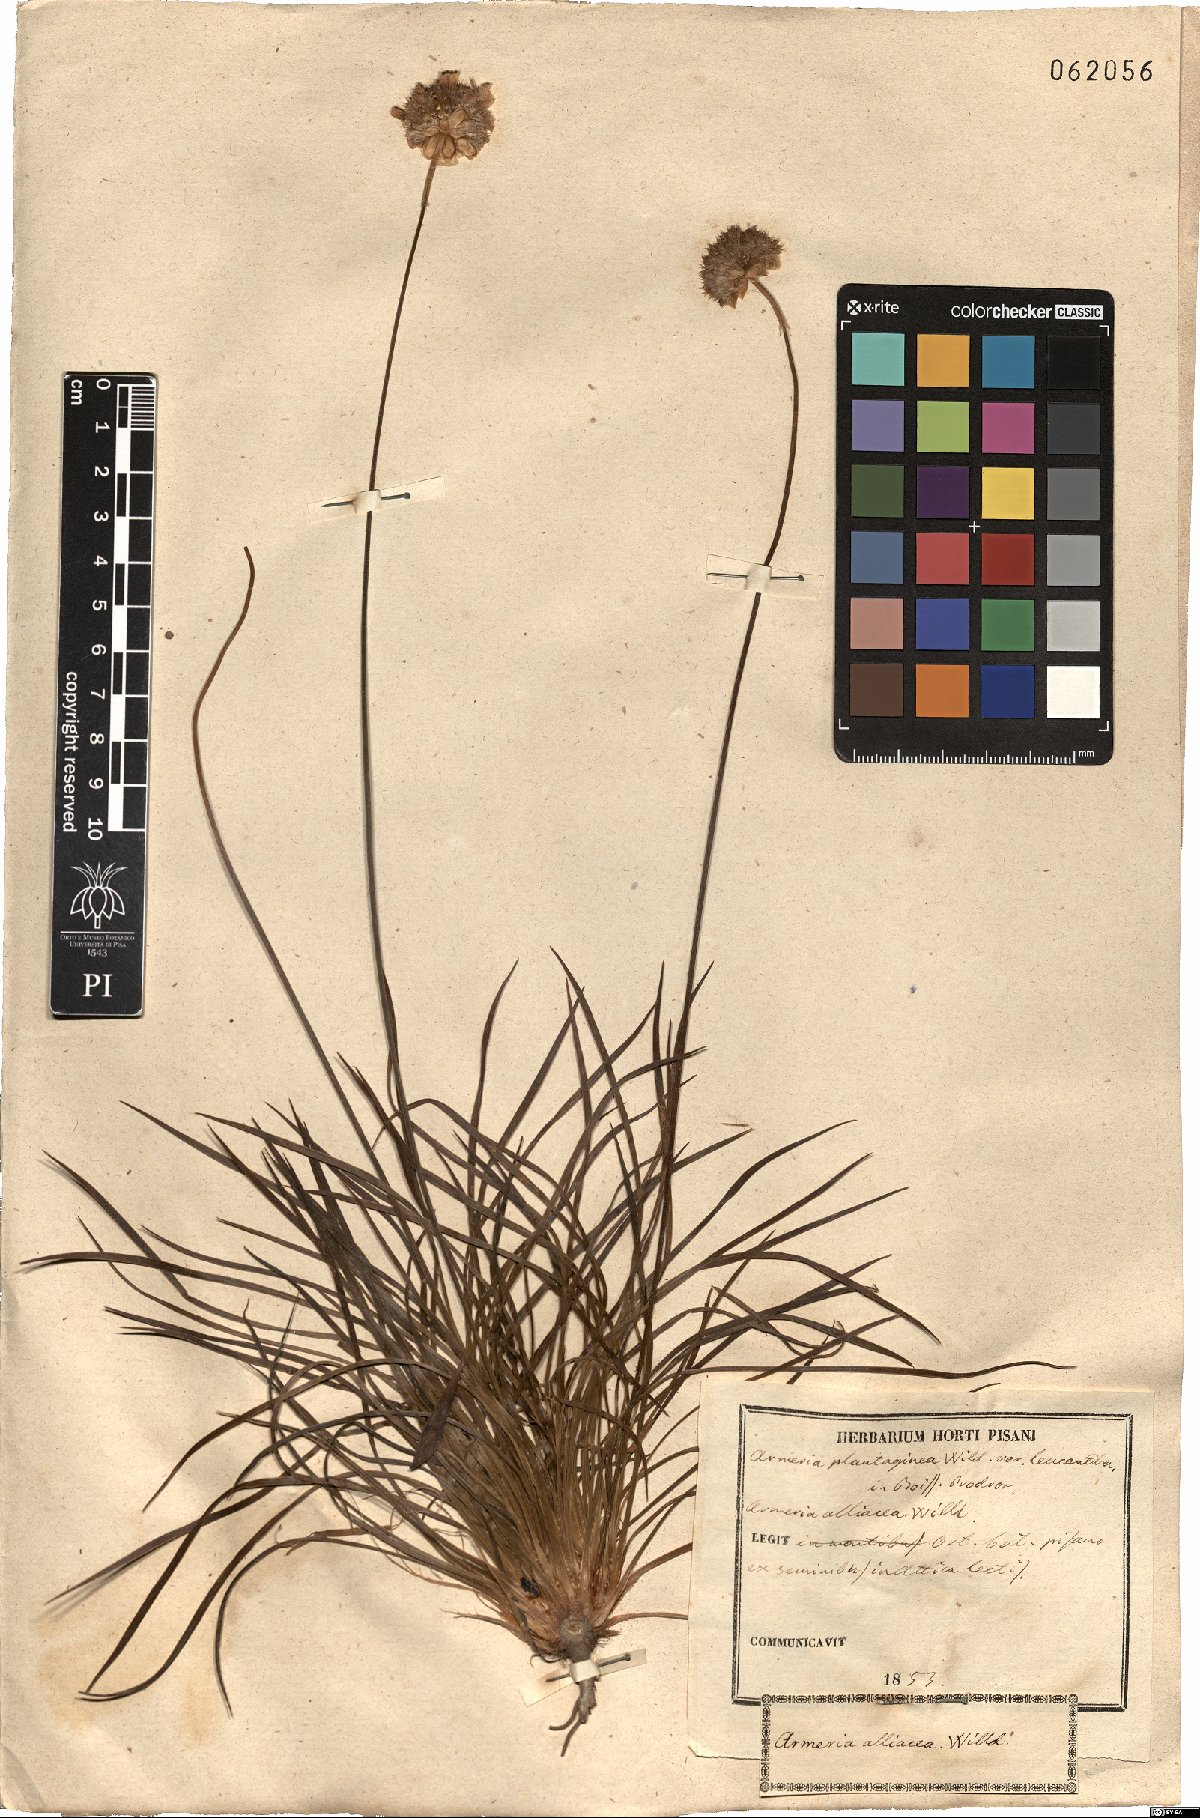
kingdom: Plantae
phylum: Tracheophyta
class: Magnoliopsida
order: Caryophyllales
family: Plumbaginaceae
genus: Armeria
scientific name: Armeria alliacea
